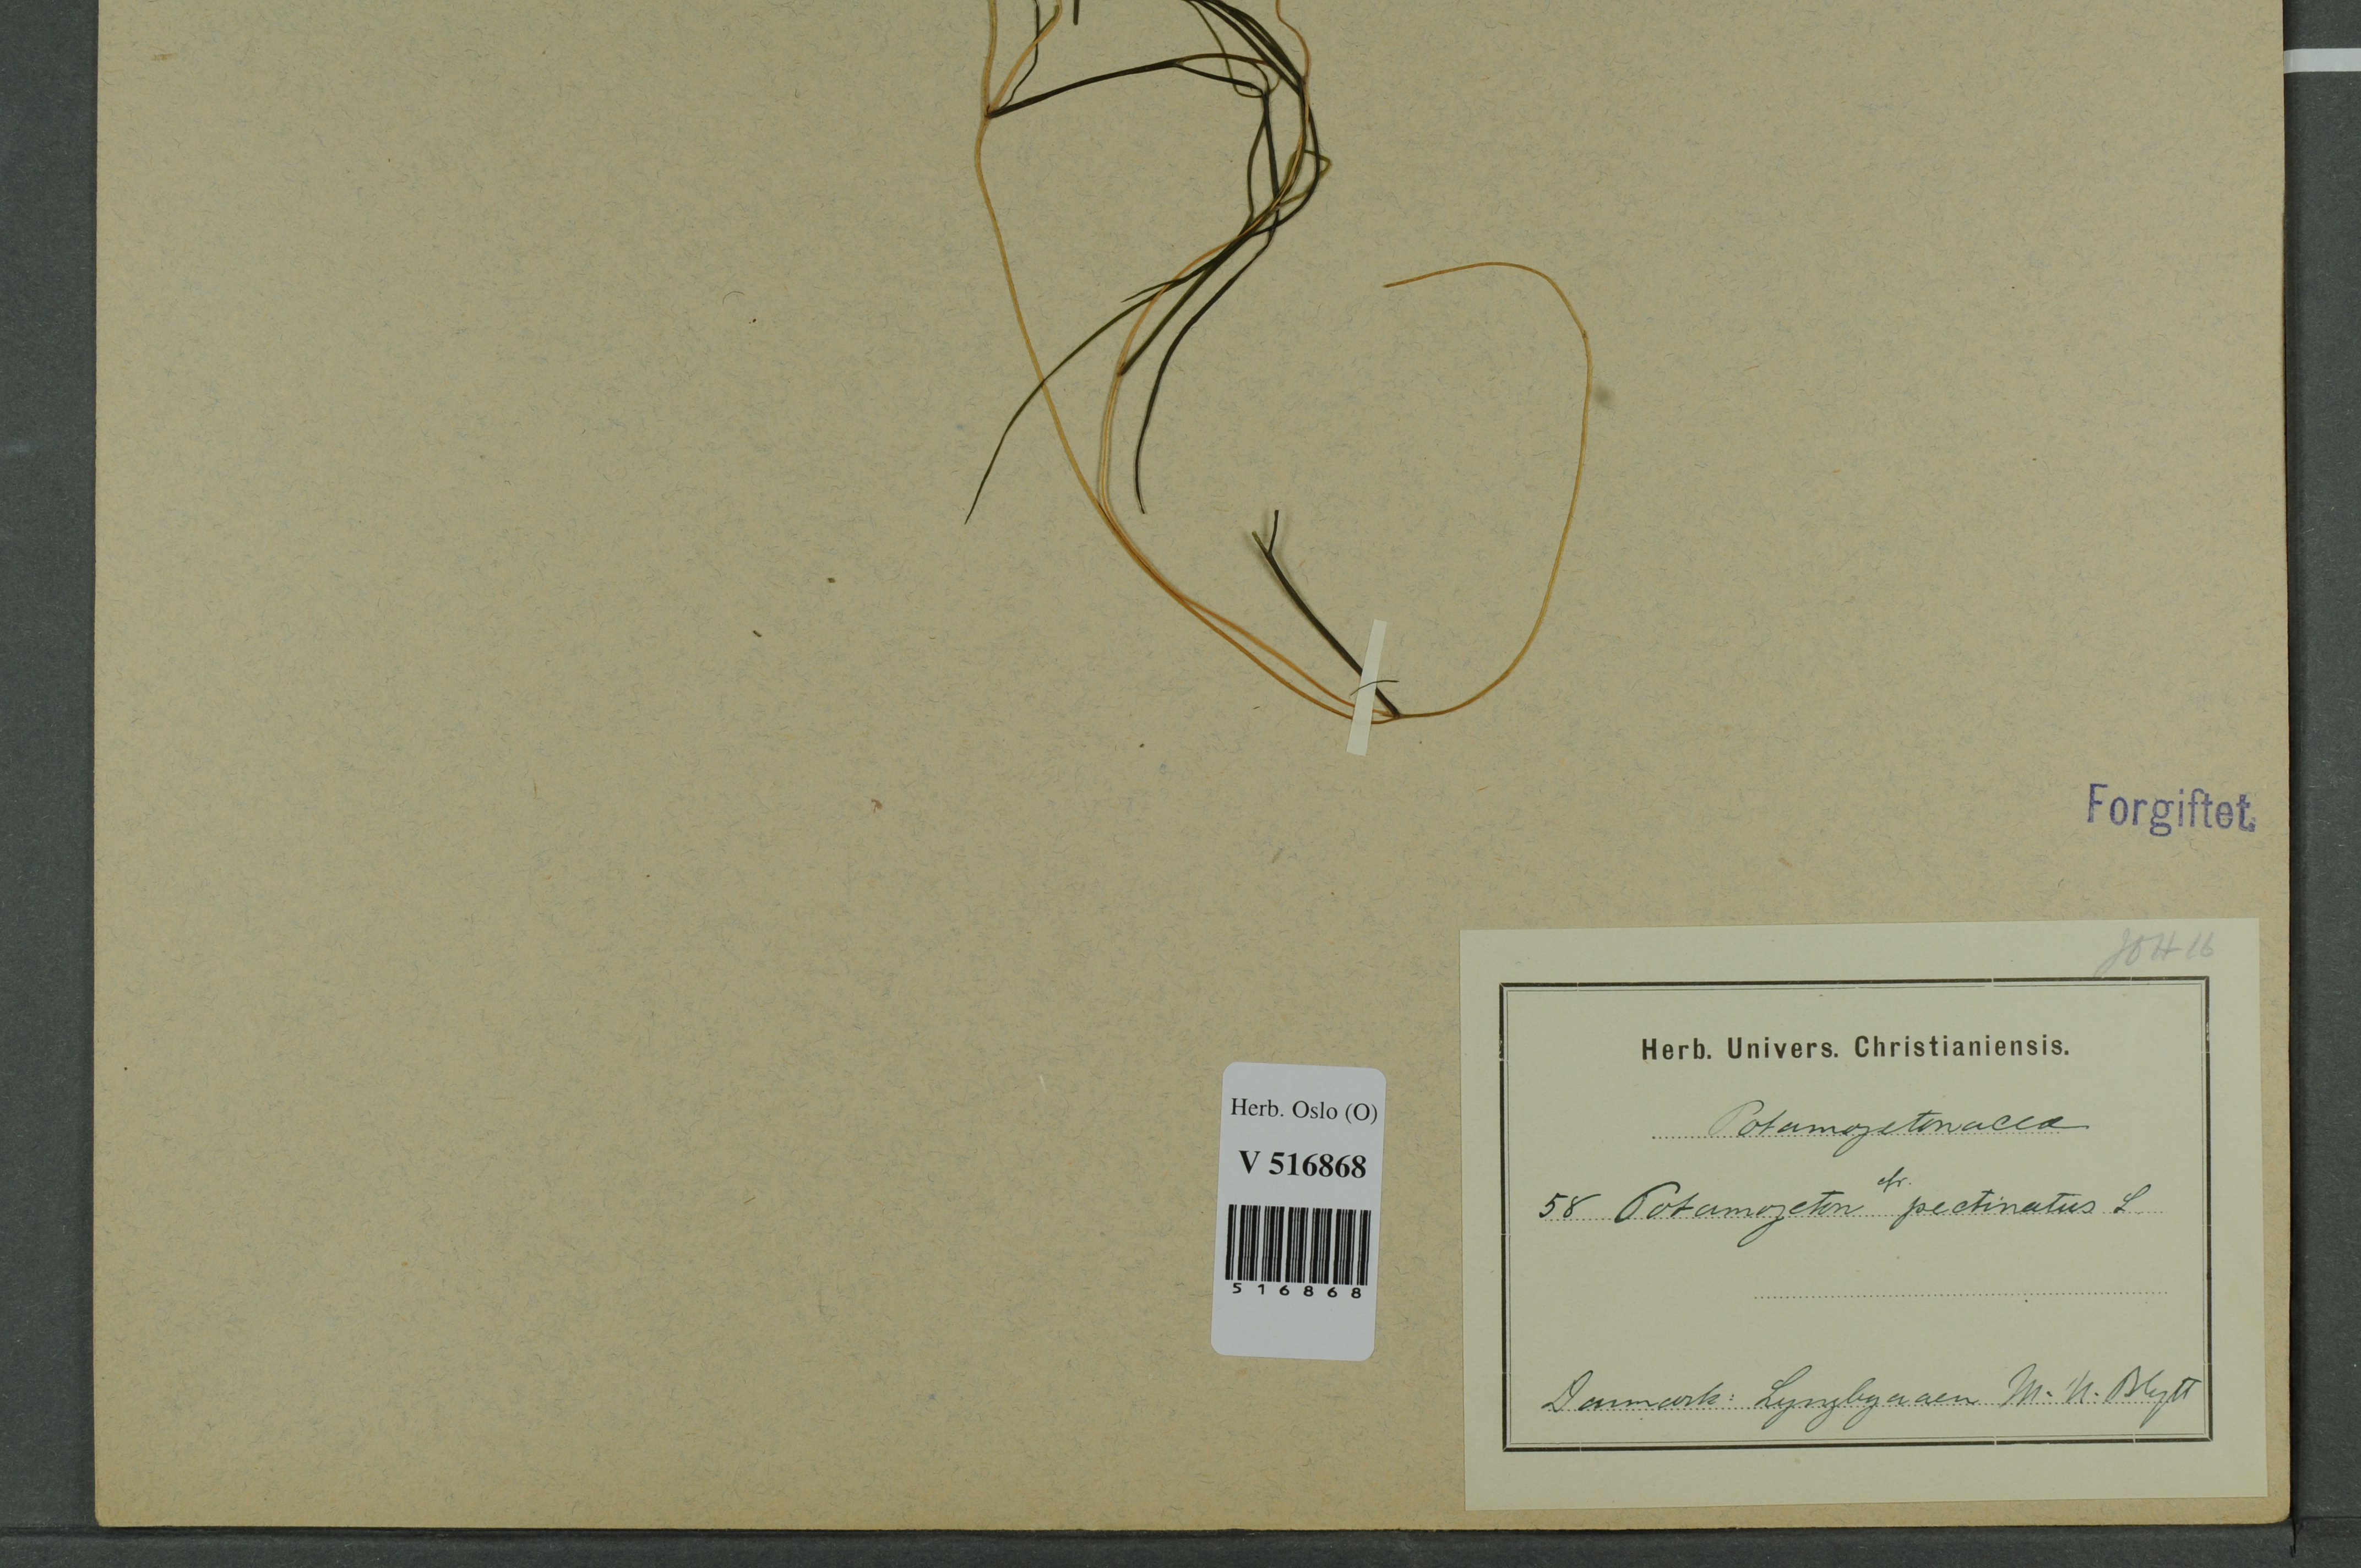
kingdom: Plantae
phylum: Tracheophyta
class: Liliopsida
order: Alismatales
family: Potamogetonaceae
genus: Stuckenia
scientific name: Stuckenia pectinata
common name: Sago pondweed
